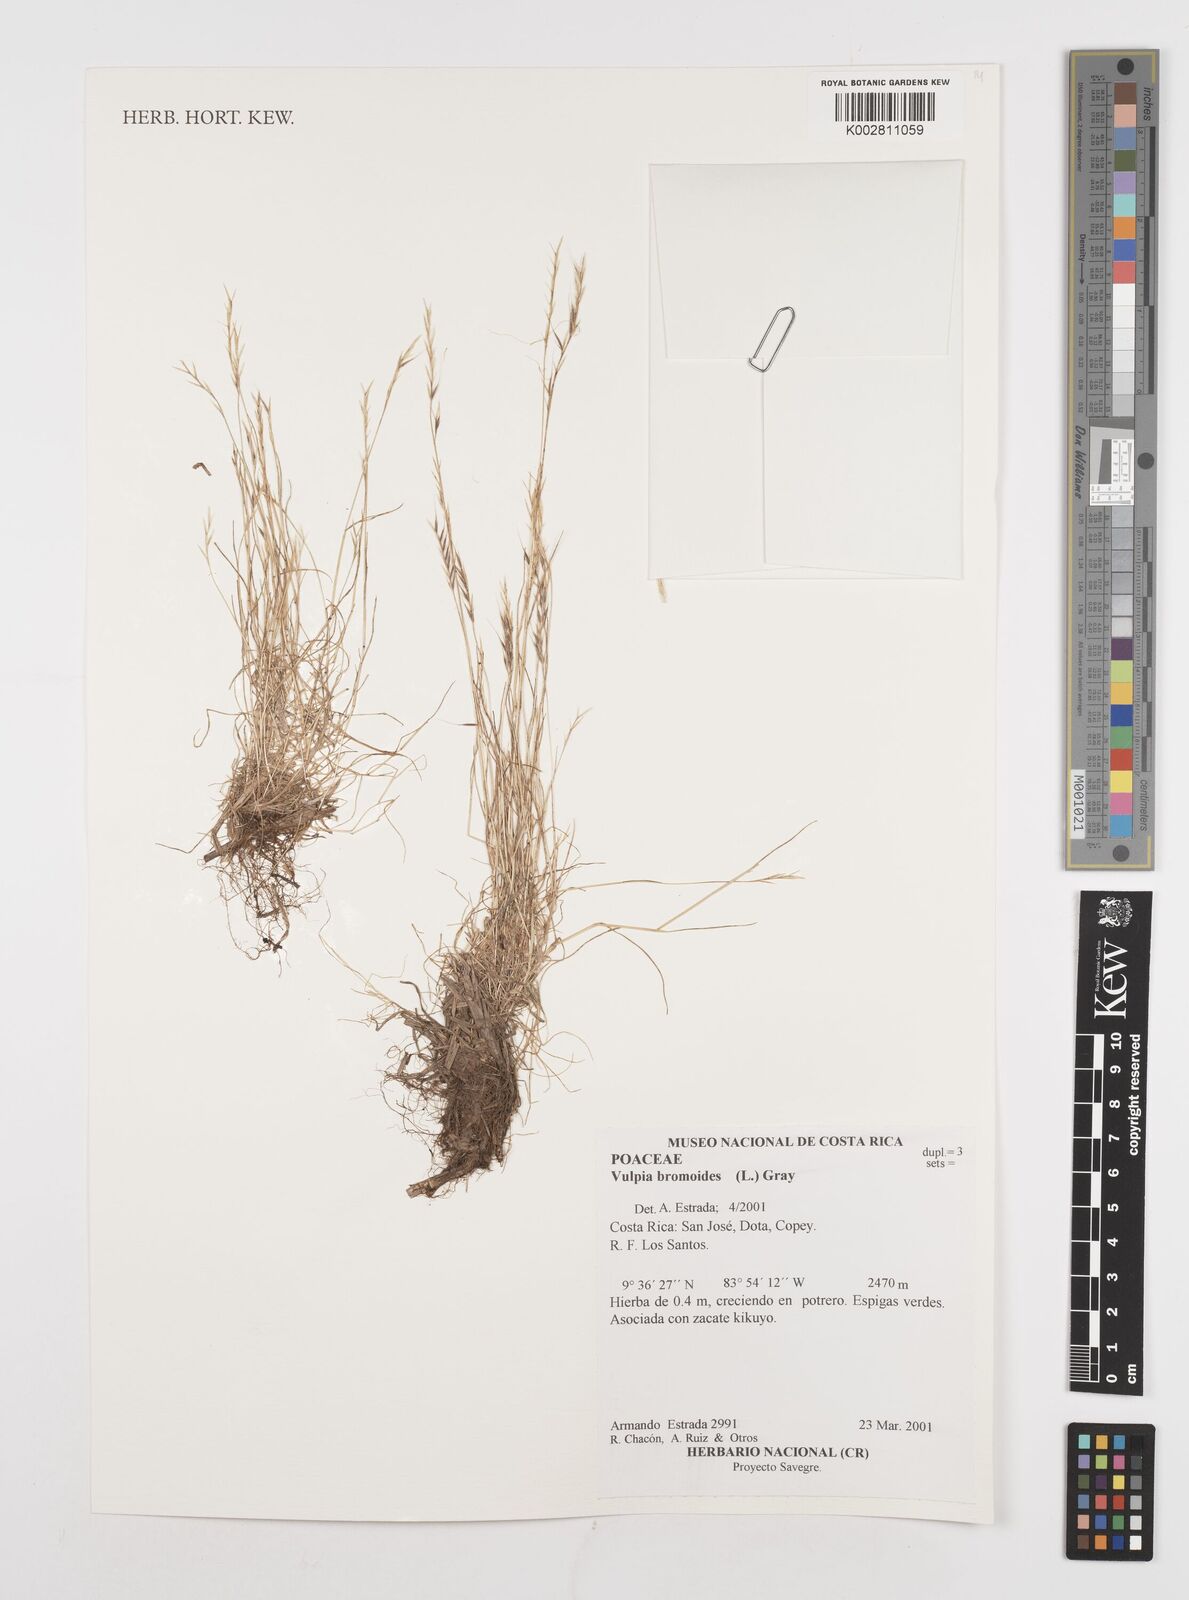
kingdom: Plantae
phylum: Tracheophyta
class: Liliopsida
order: Poales
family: Poaceae
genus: Festuca
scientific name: Festuca bromoides
